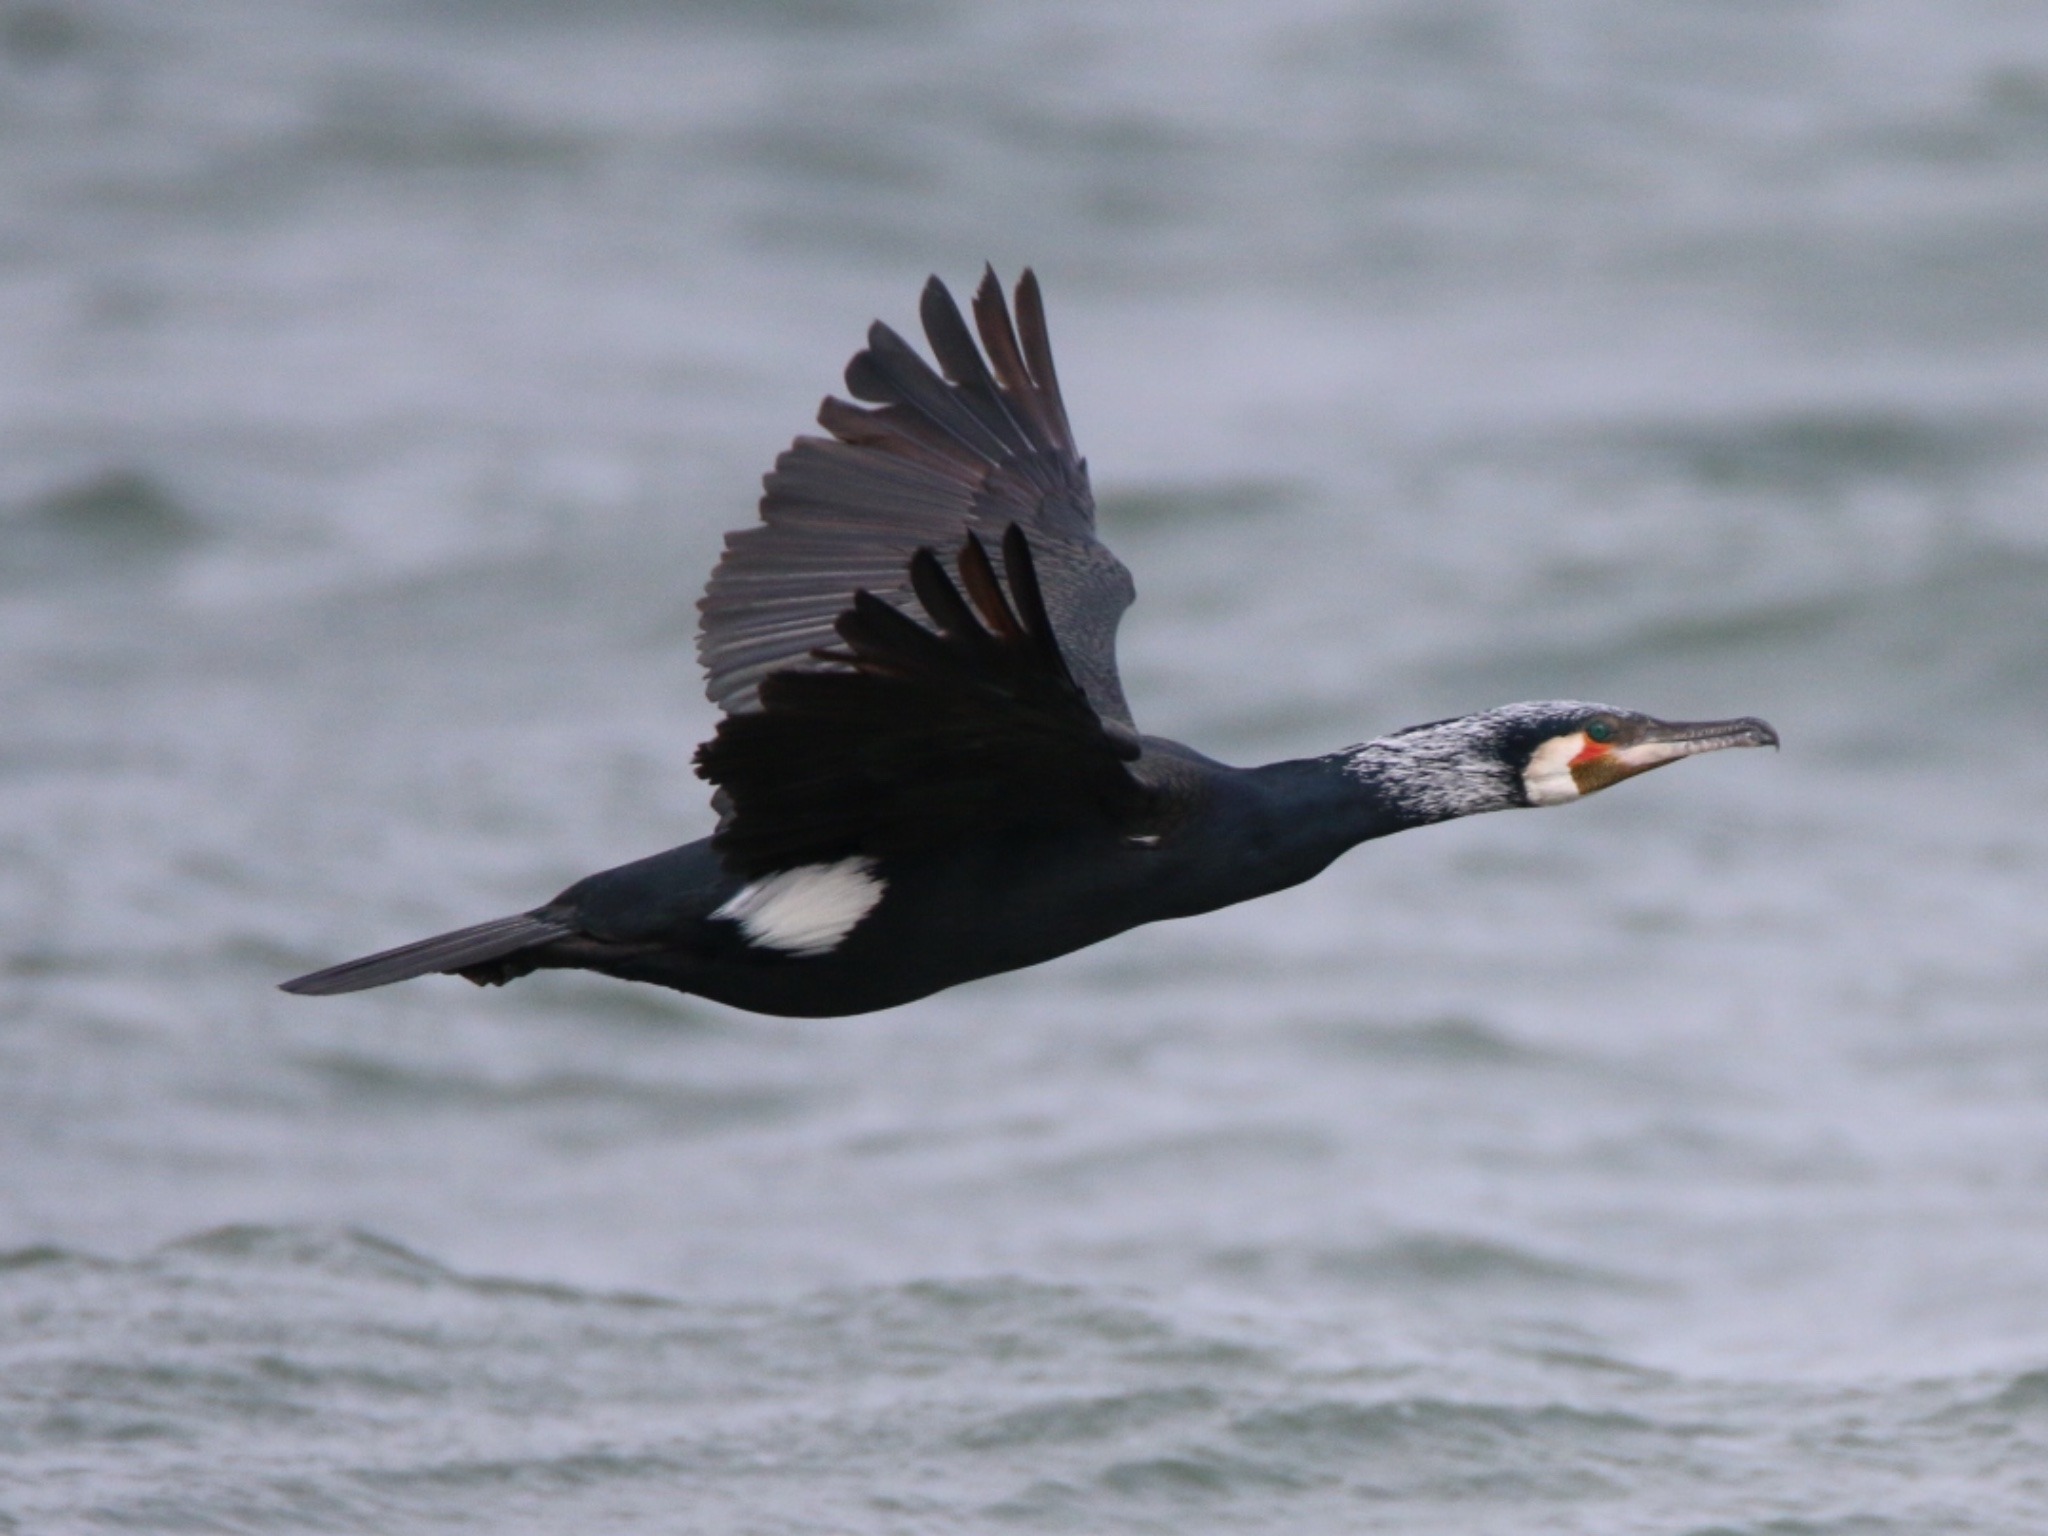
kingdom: Animalia
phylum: Chordata
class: Aves
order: Suliformes
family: Phalacrocoracidae
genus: Phalacrocorax
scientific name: Phalacrocorax carbo
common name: Skarv
